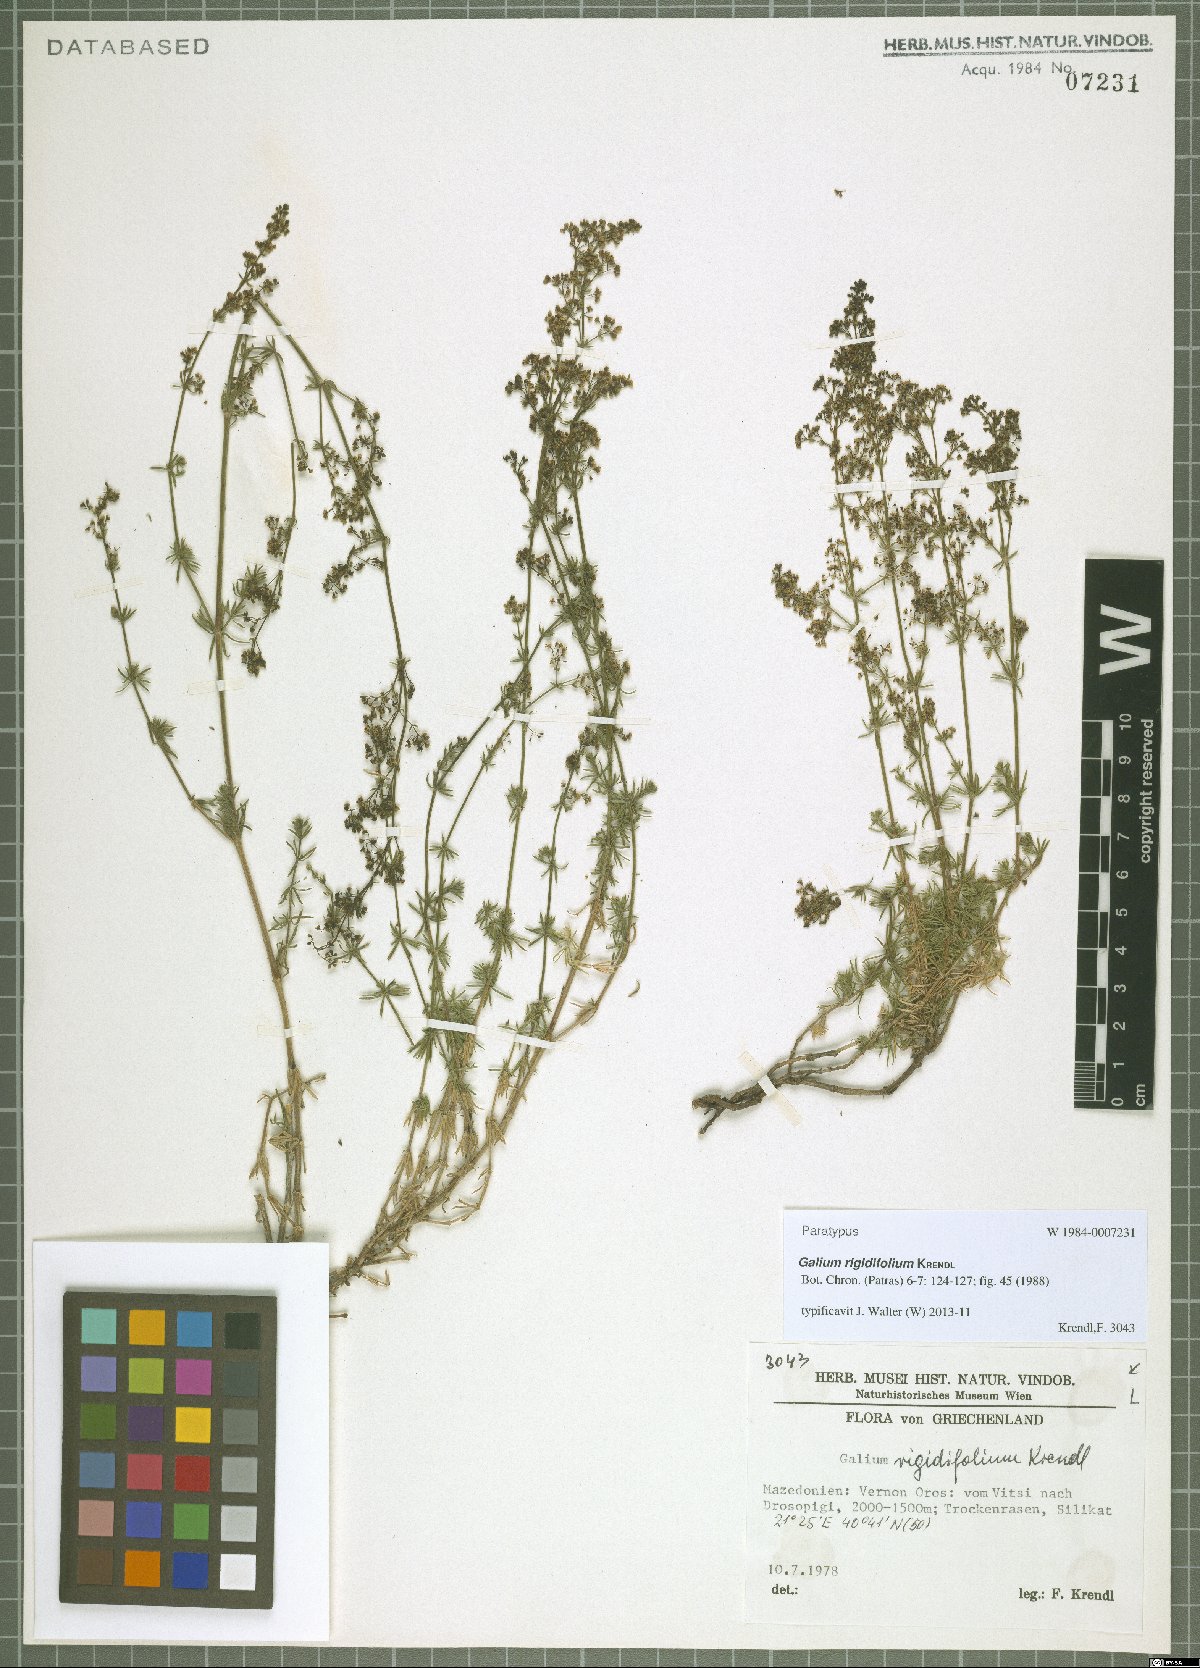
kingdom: Plantae
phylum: Tracheophyta
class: Magnoliopsida
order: Gentianales
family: Rubiaceae
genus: Galium
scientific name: Galium rigidifolium
